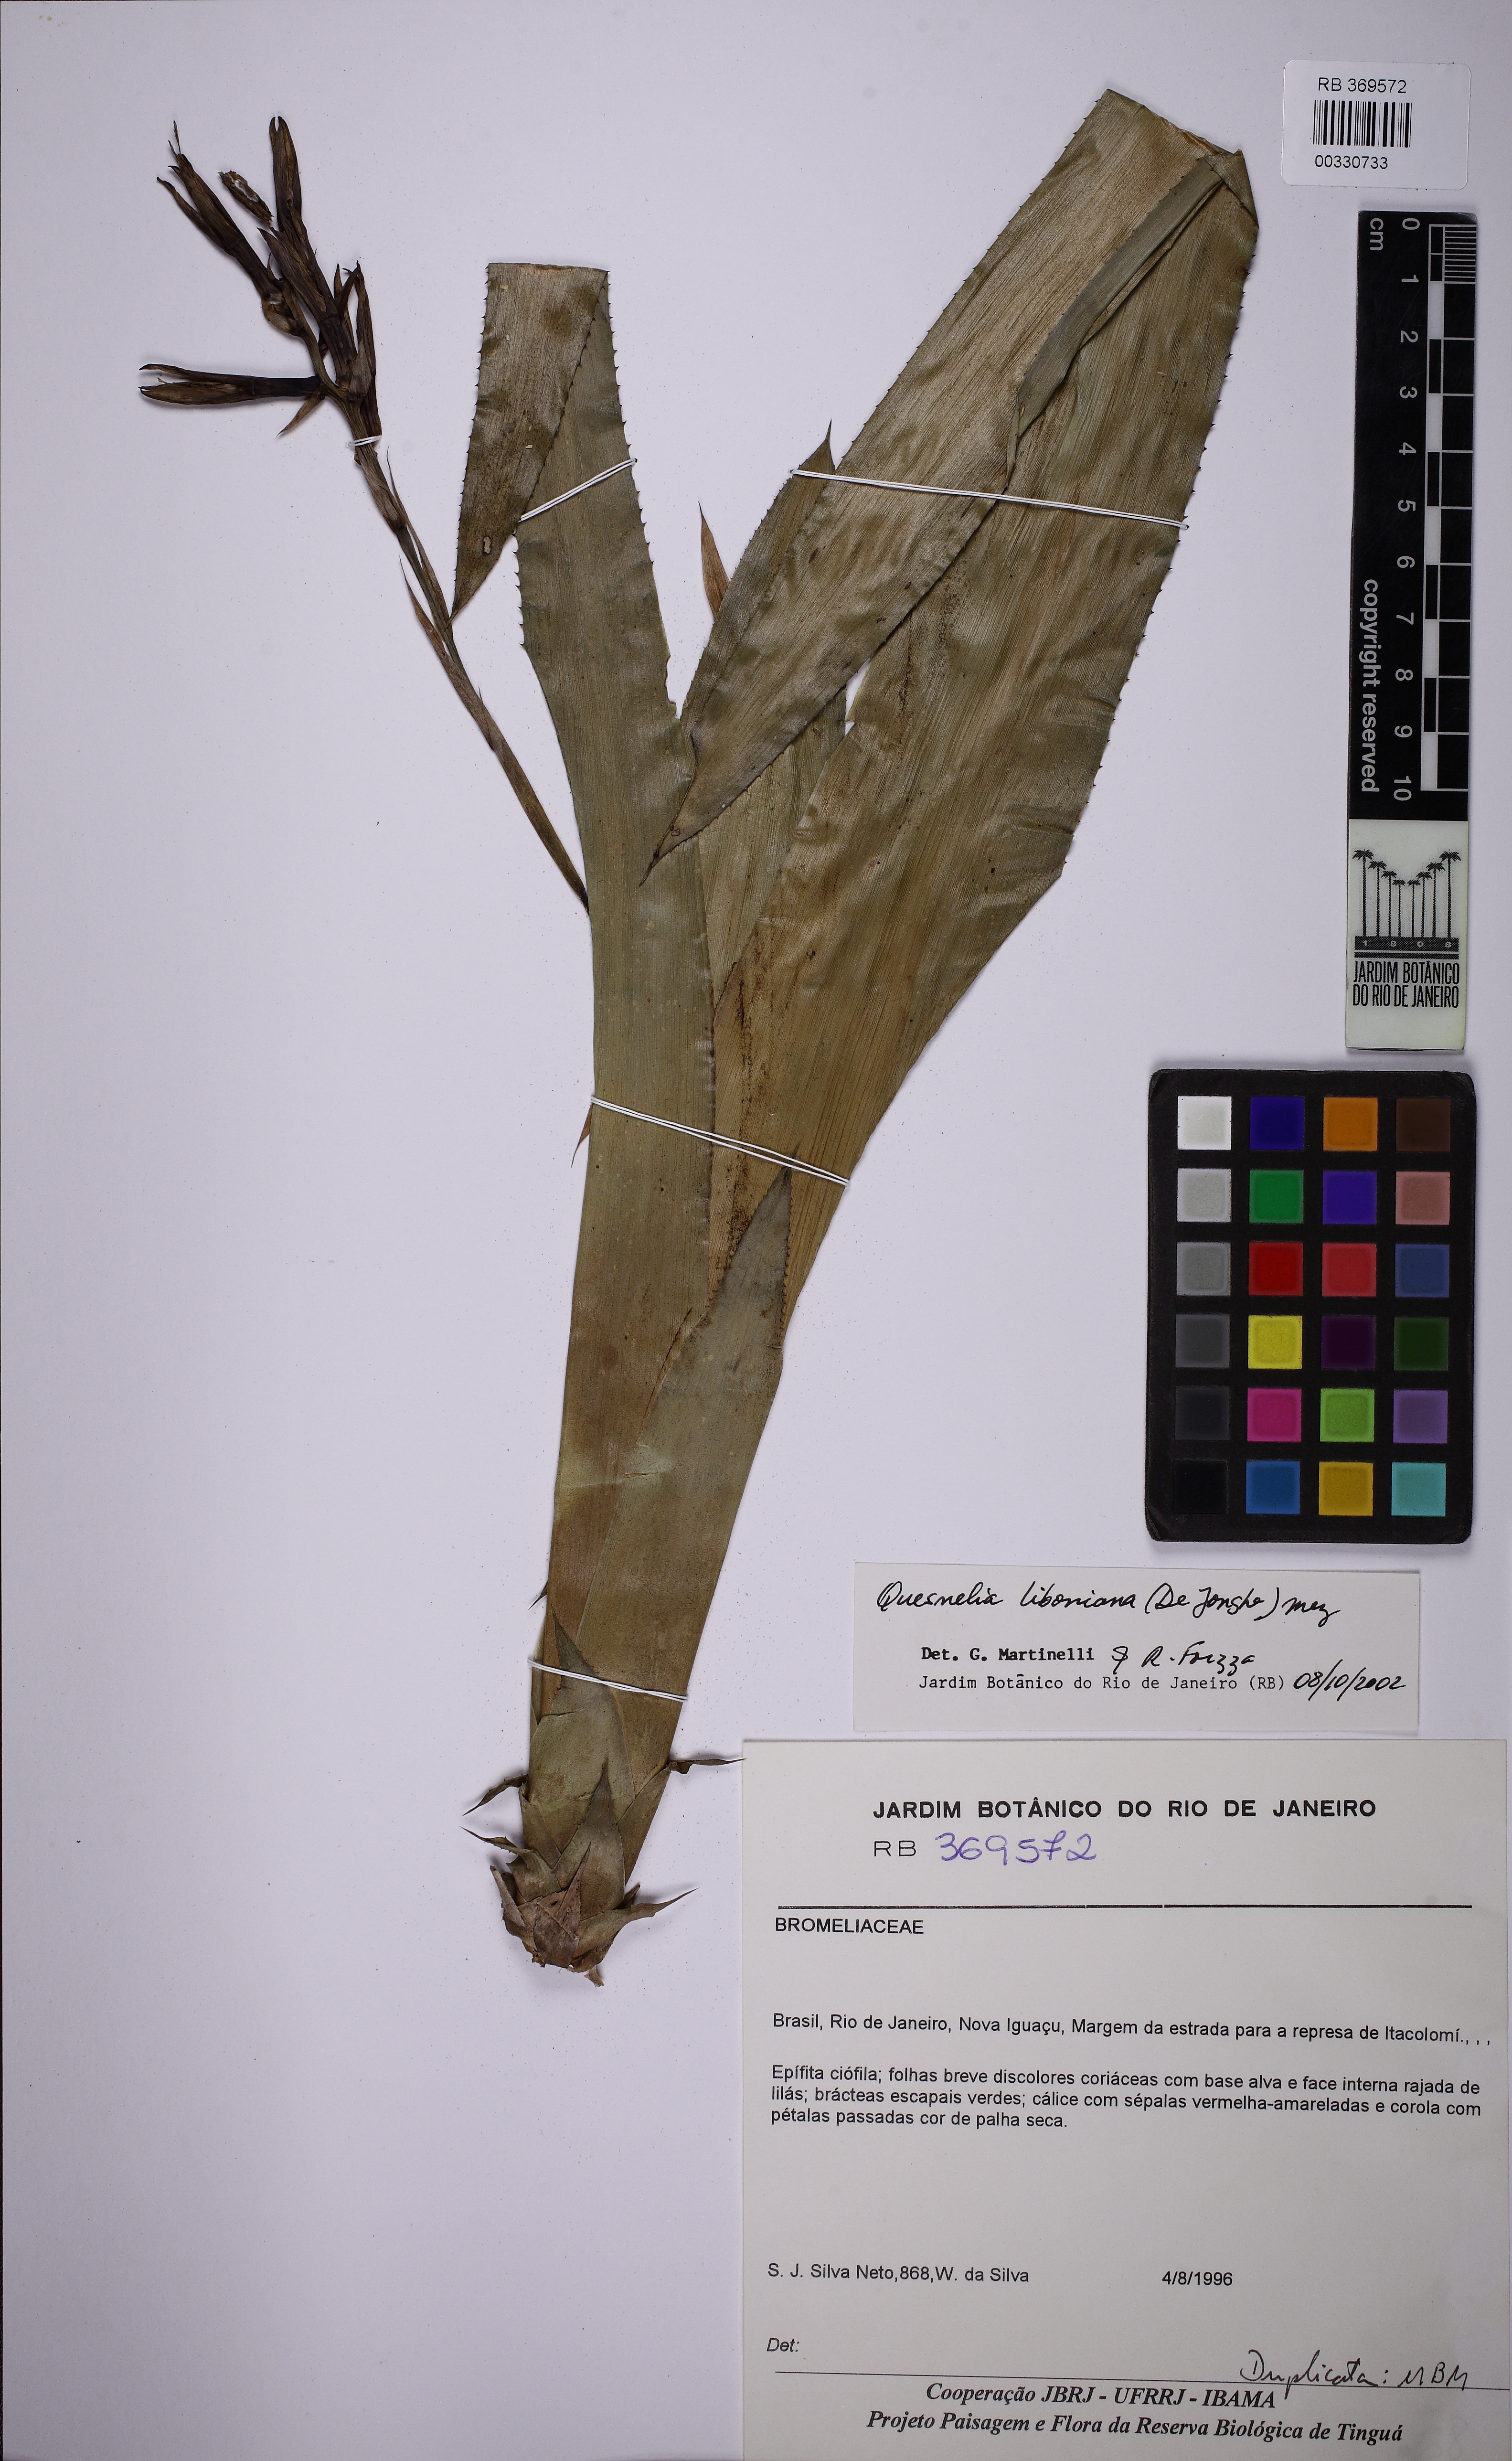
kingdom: Plantae
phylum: Tracheophyta
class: Liliopsida
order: Poales
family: Bromeliaceae
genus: Quesnelia
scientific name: Quesnelia liboniana
